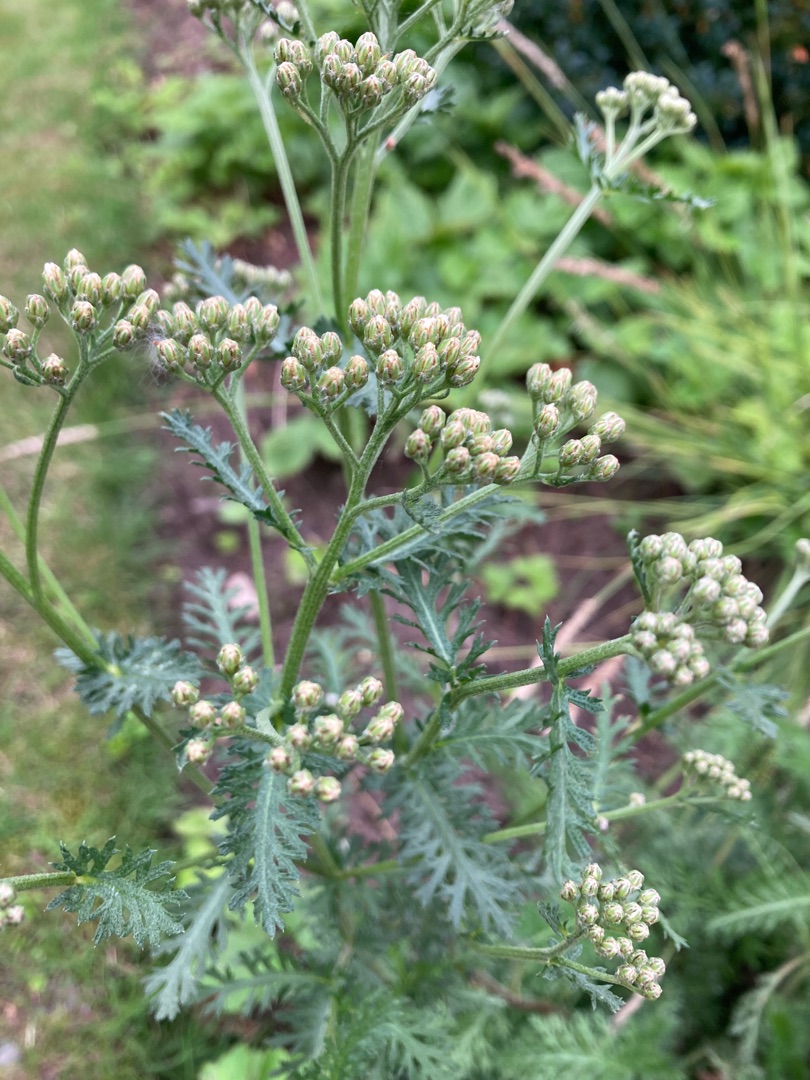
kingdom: Plantae
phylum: Tracheophyta
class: Magnoliopsida
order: Asterales
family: Asteraceae
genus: Achillea
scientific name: Achillea millefolium
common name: Almindelig røllike
